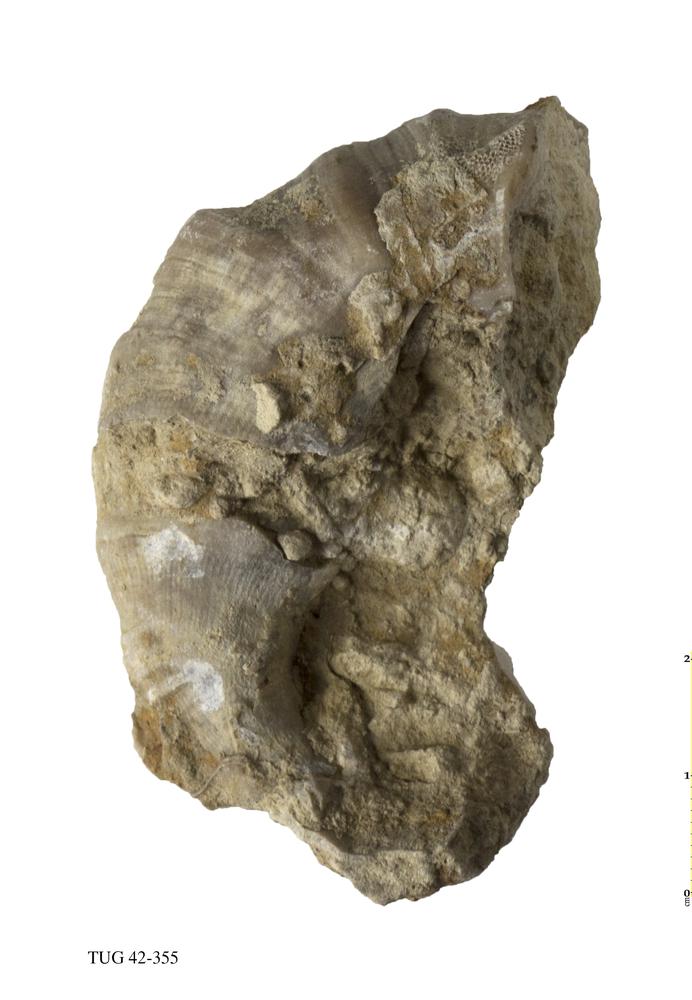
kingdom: Animalia
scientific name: Animalia
